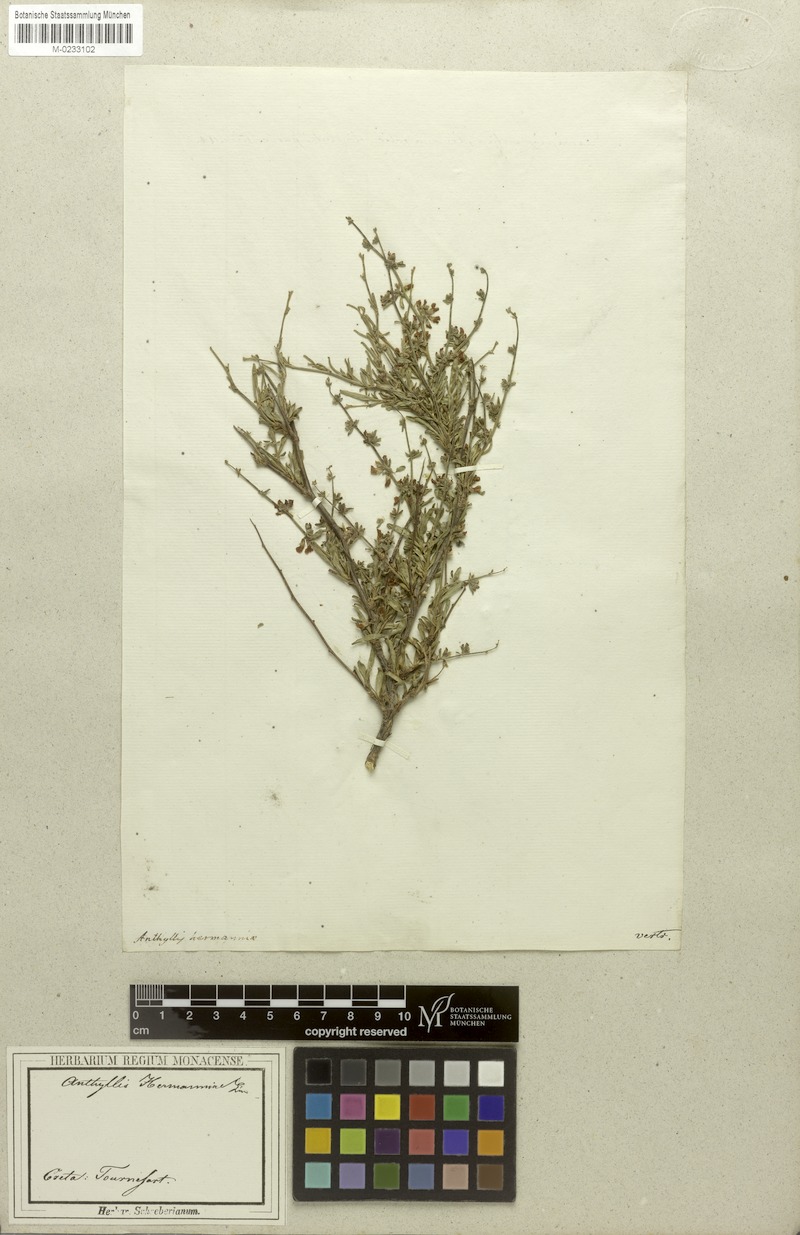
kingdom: Plantae
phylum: Tracheophyta
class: Magnoliopsida
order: Fabales
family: Fabaceae
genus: Anthyllis
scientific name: Anthyllis hermanniae
